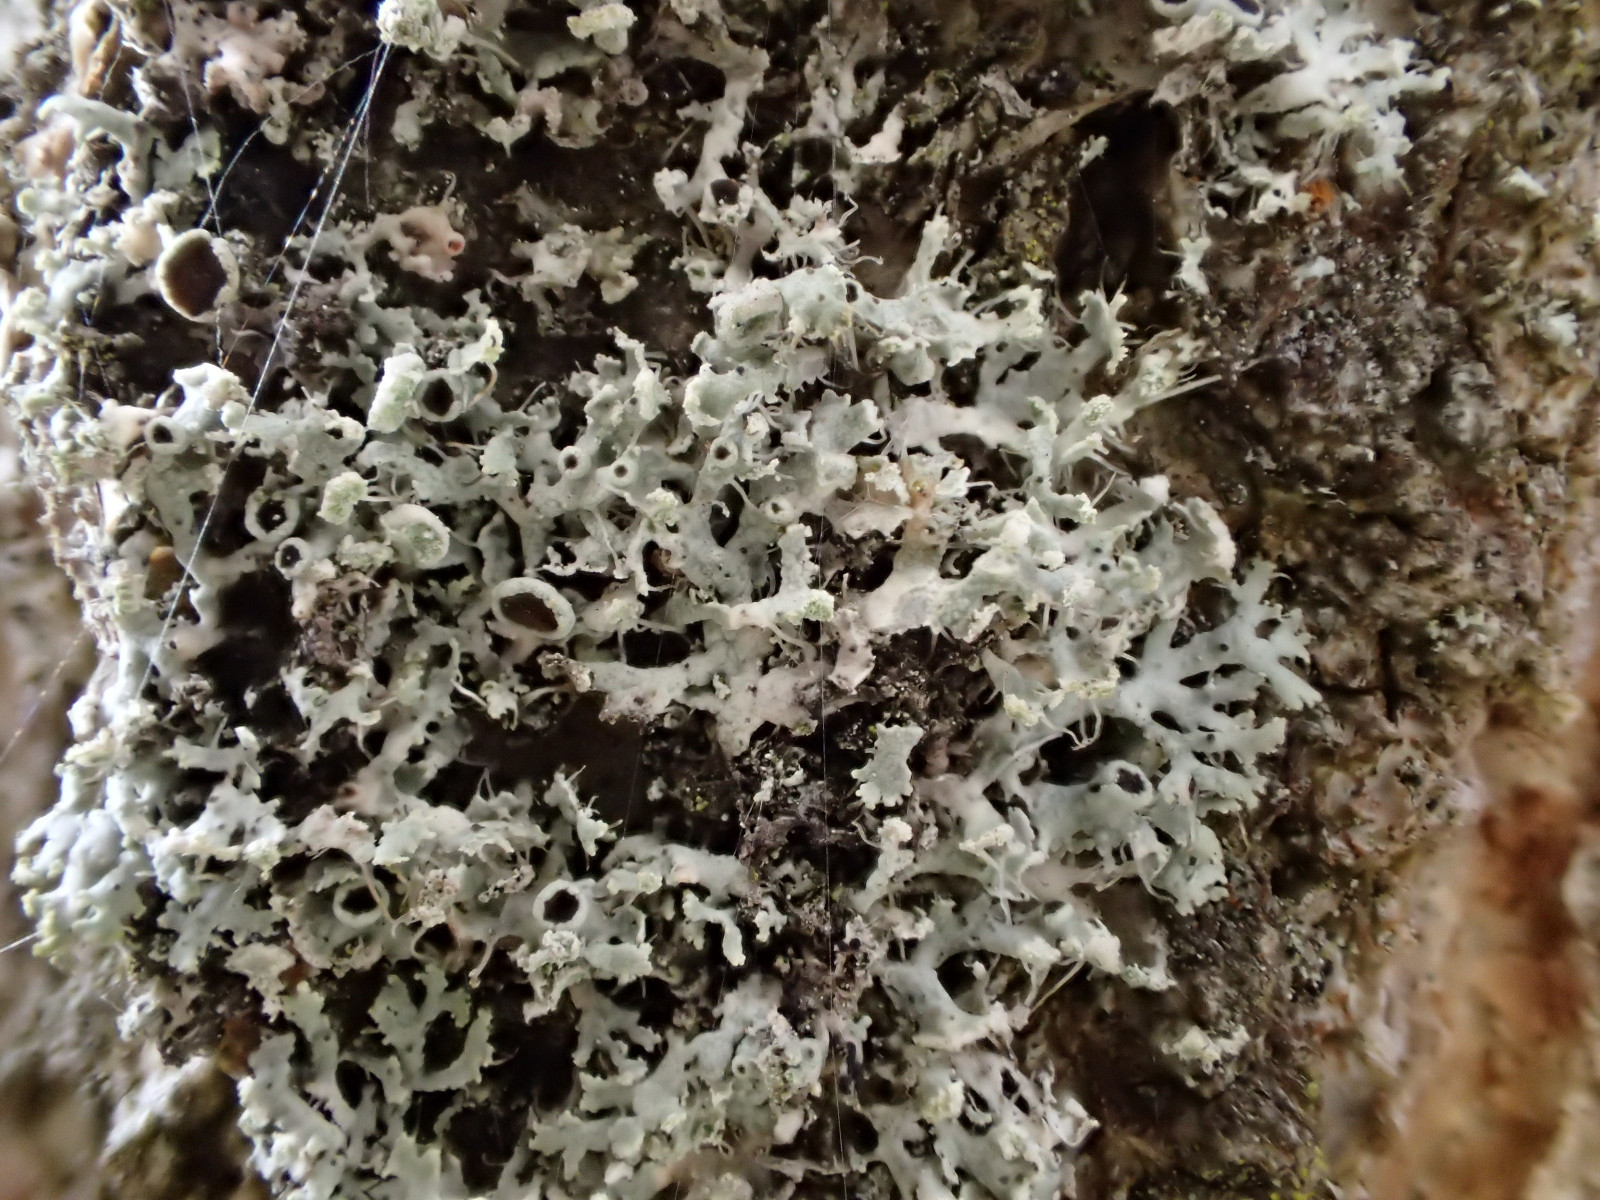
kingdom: Fungi
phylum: Ascomycota
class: Lecanoromycetes
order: Caliciales
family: Physciaceae
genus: Physcia
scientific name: Physcia tenella
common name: spæd rosetlav
